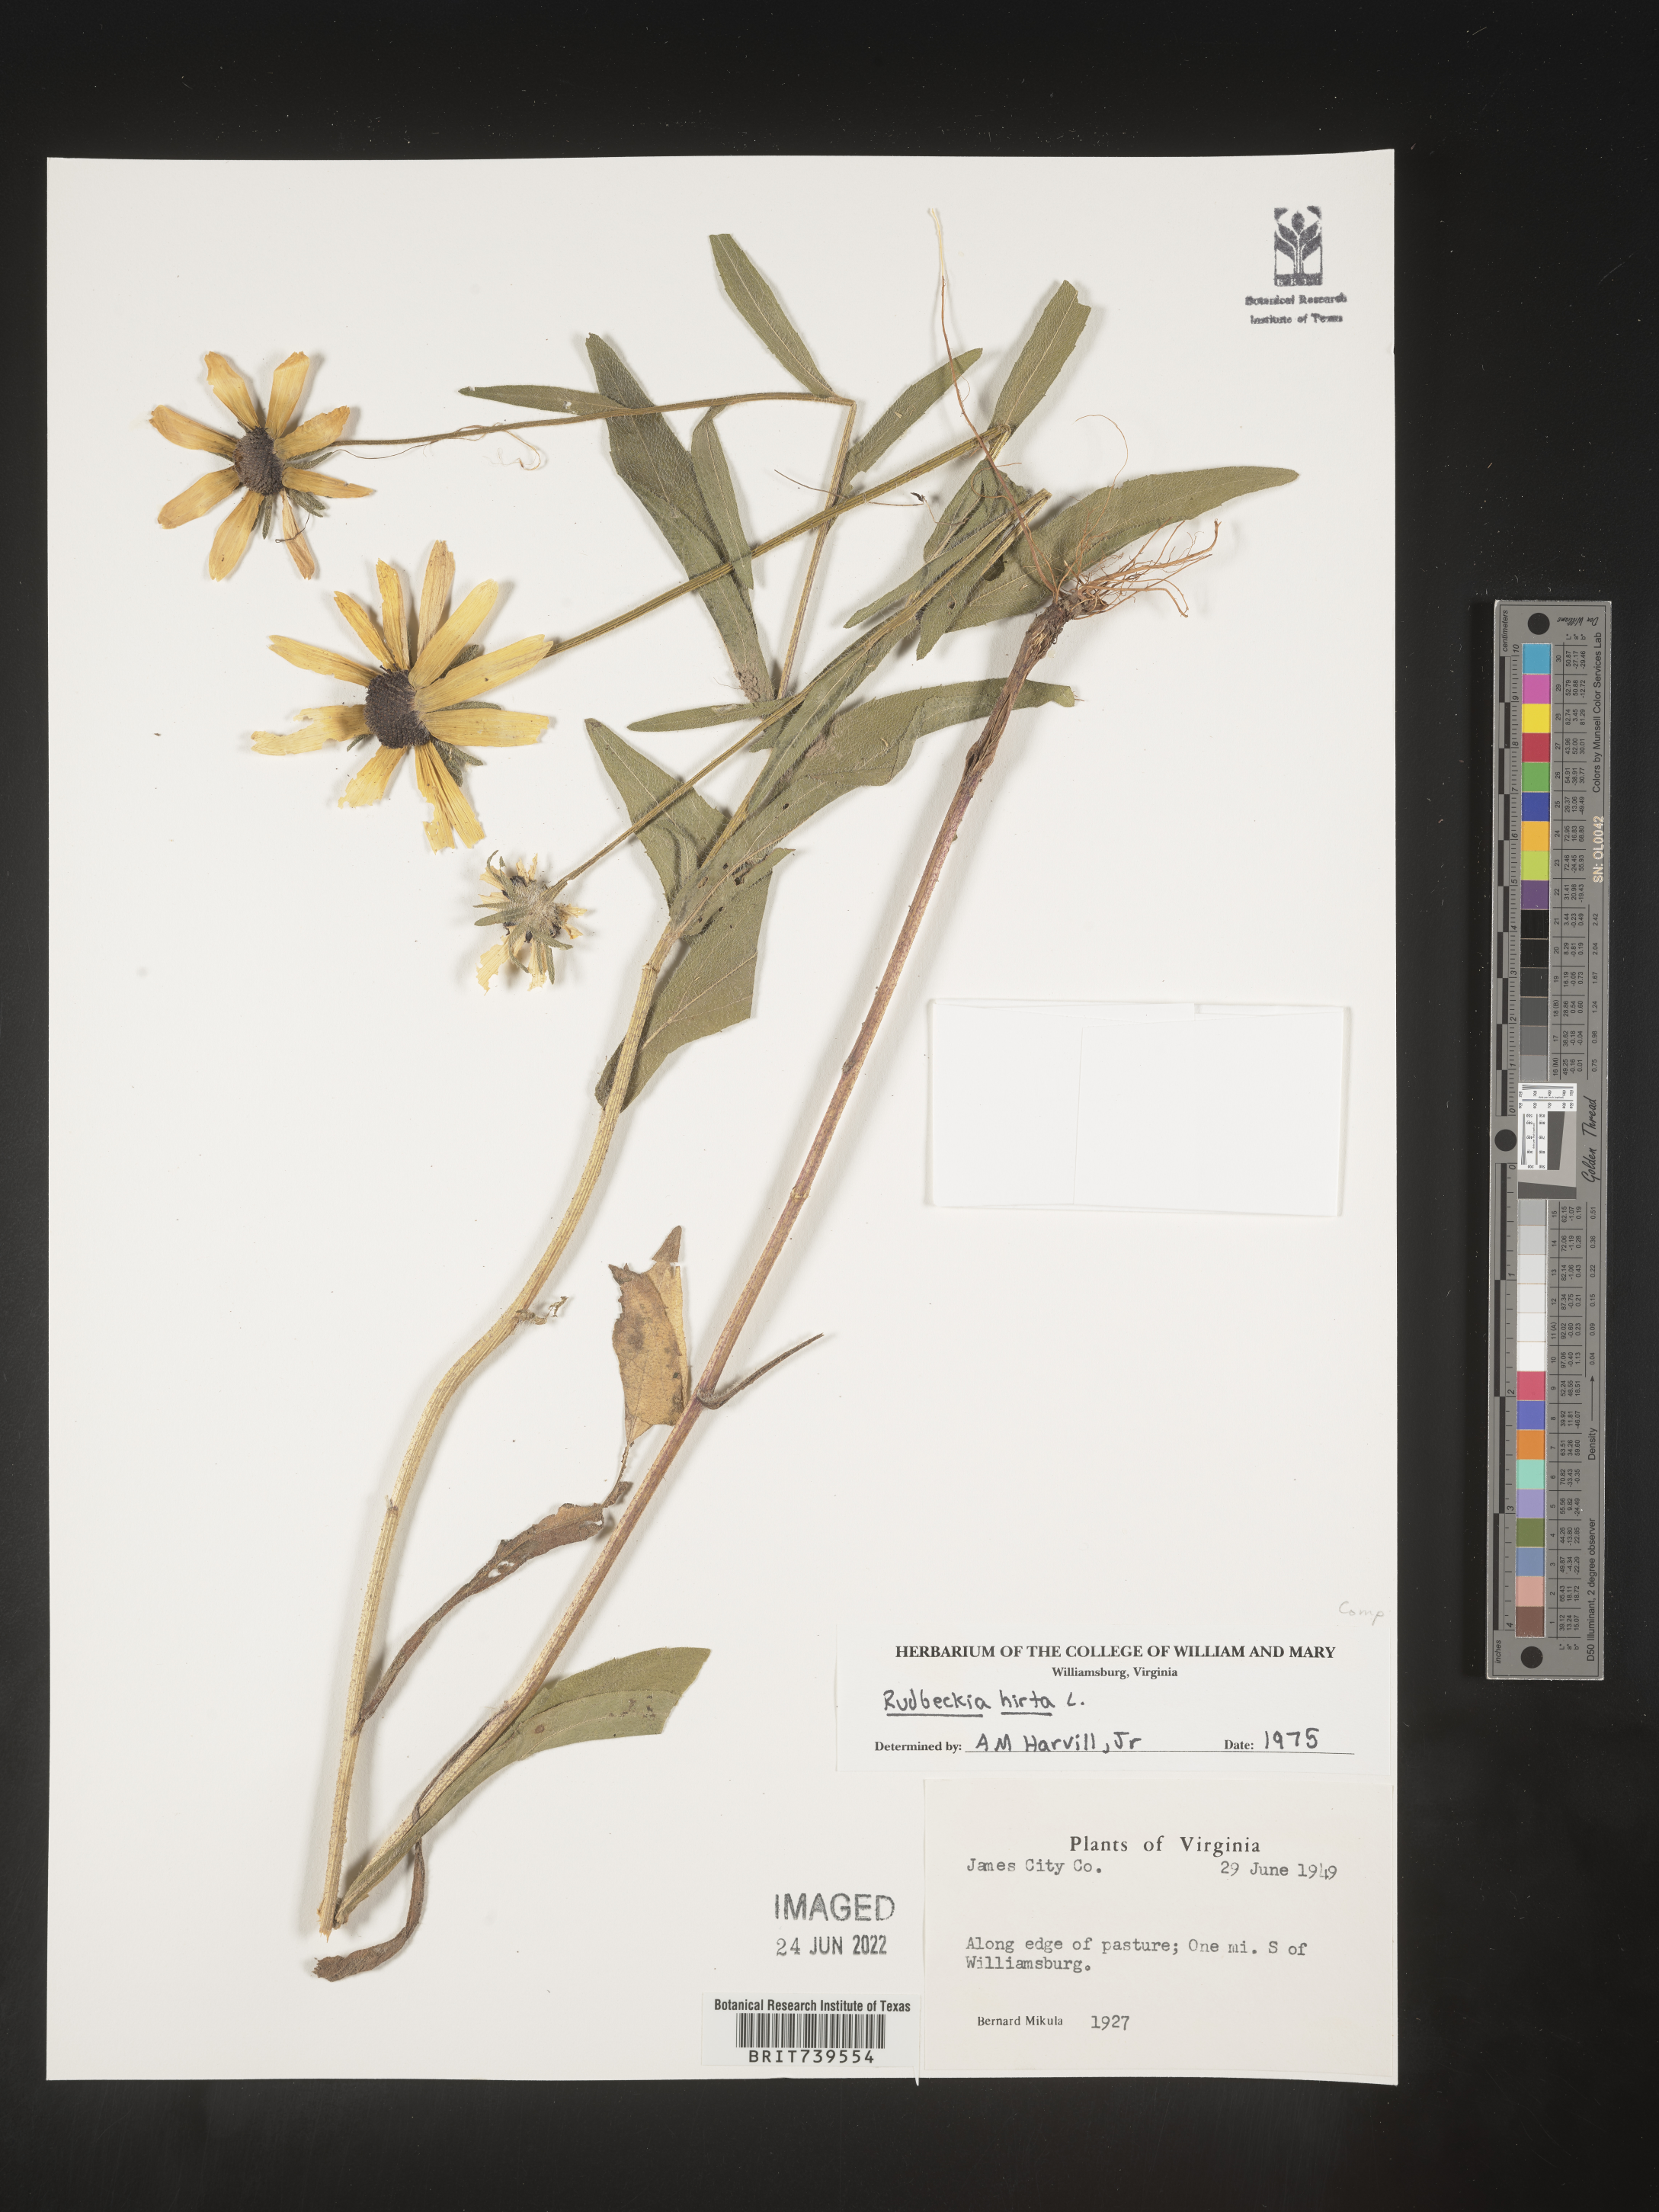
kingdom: Plantae
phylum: Tracheophyta
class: Magnoliopsida
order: Asterales
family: Asteraceae
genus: Rudbeckia
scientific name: Rudbeckia hirta
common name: Black-eyed-susan
